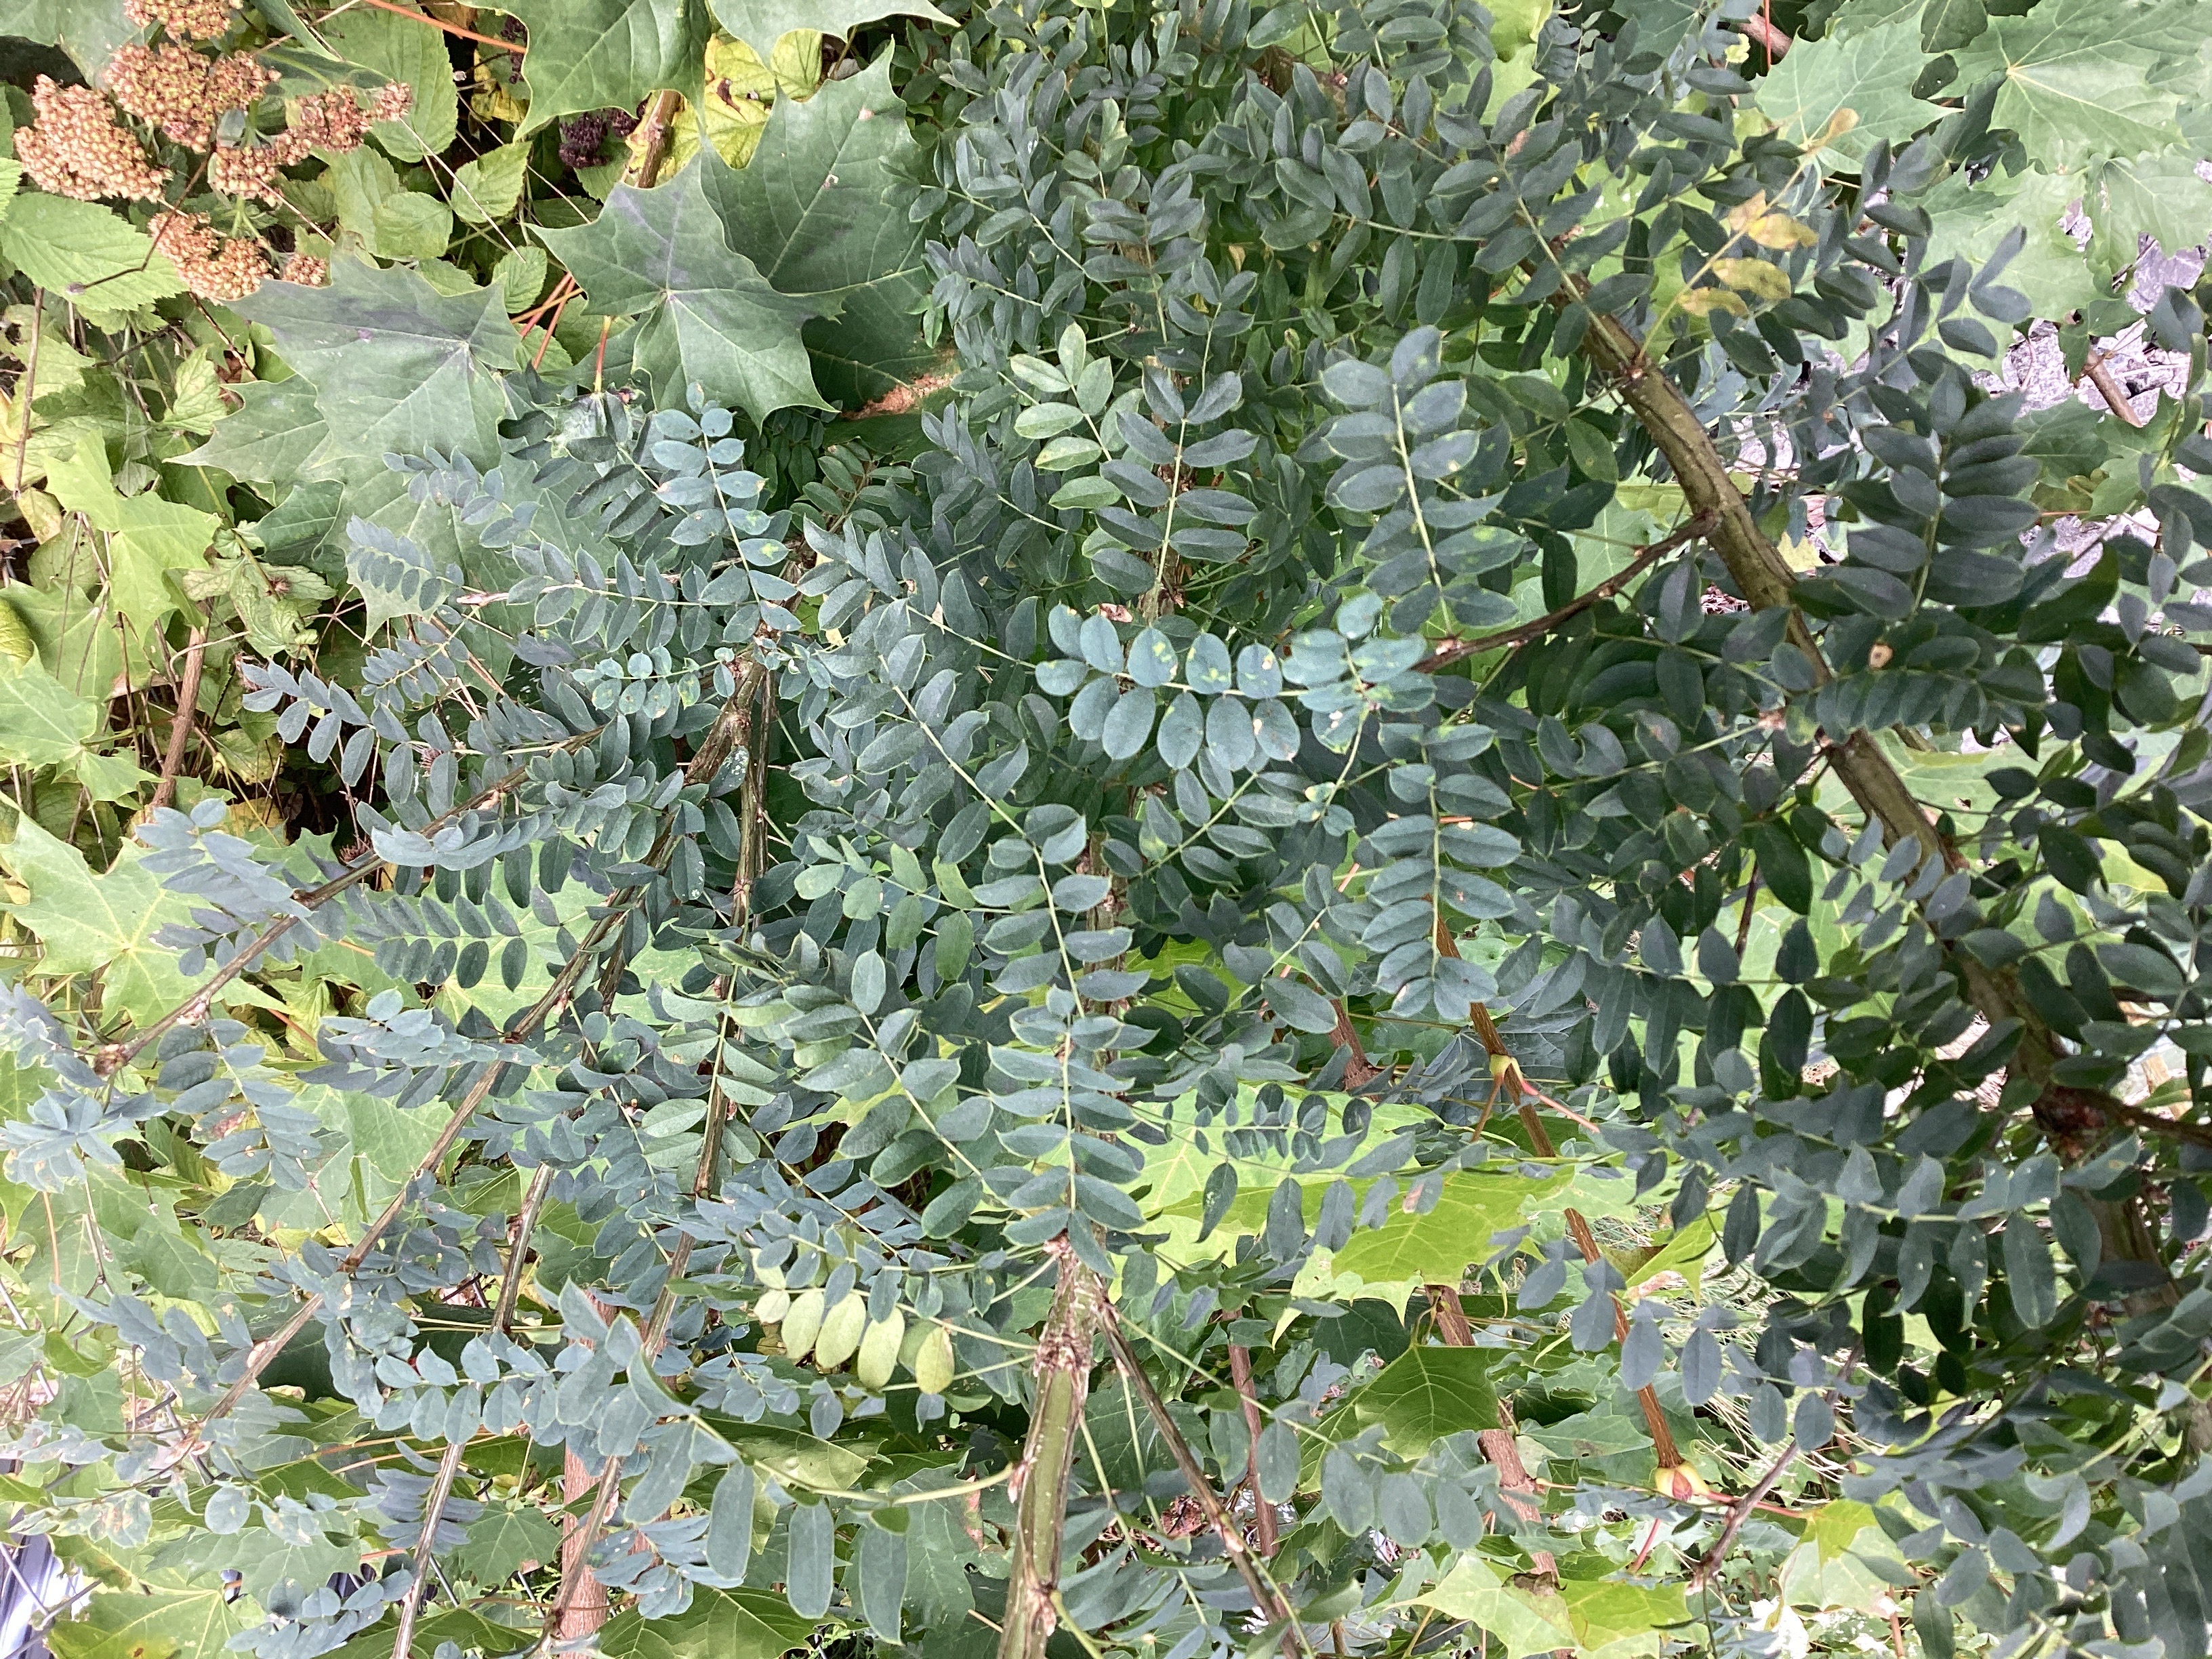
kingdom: Plantae
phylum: Tracheophyta
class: Magnoliopsida
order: Fabales
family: Fabaceae
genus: Caragana
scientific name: Caragana arborescens
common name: sibirertebusk
